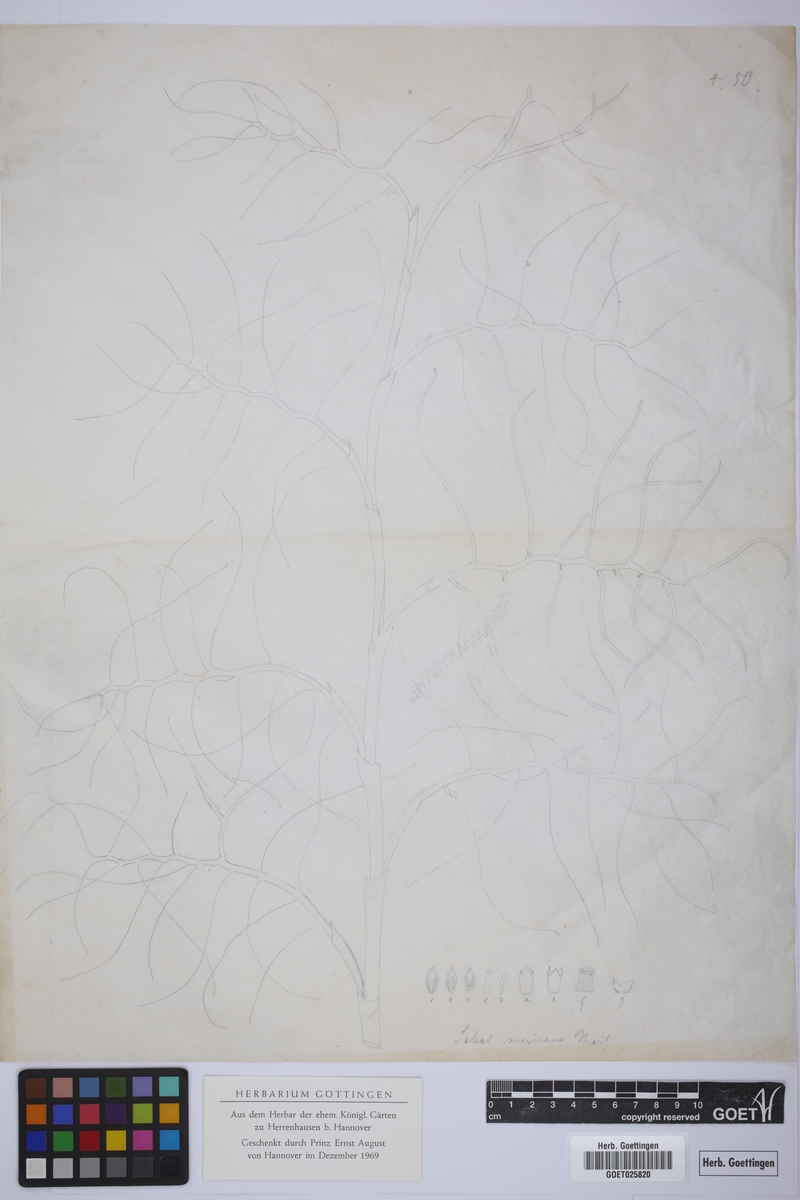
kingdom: Plantae
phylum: Tracheophyta
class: Liliopsida
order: Arecales
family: Arecaceae
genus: Sabal
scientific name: Sabal mexicana
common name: Texas palmetto
